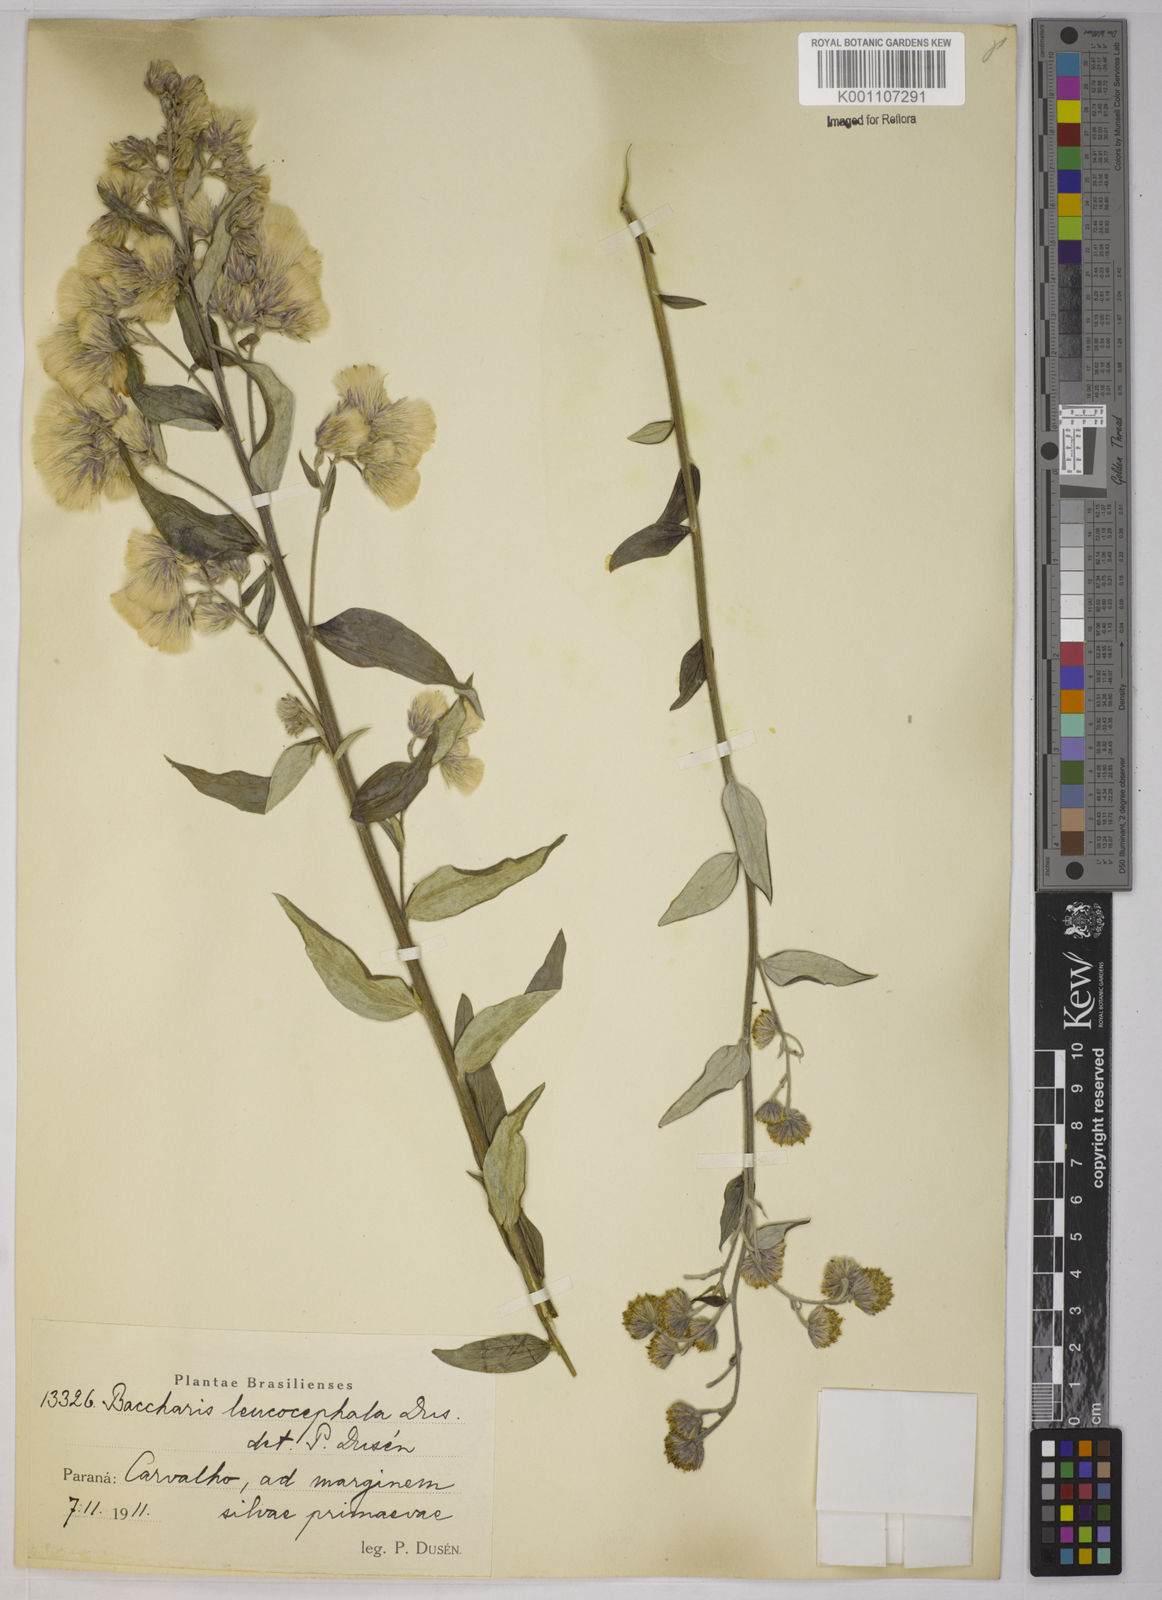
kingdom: Plantae
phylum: Tracheophyta
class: Magnoliopsida
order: Asterales
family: Asteraceae
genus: Baccharis
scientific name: Baccharis
